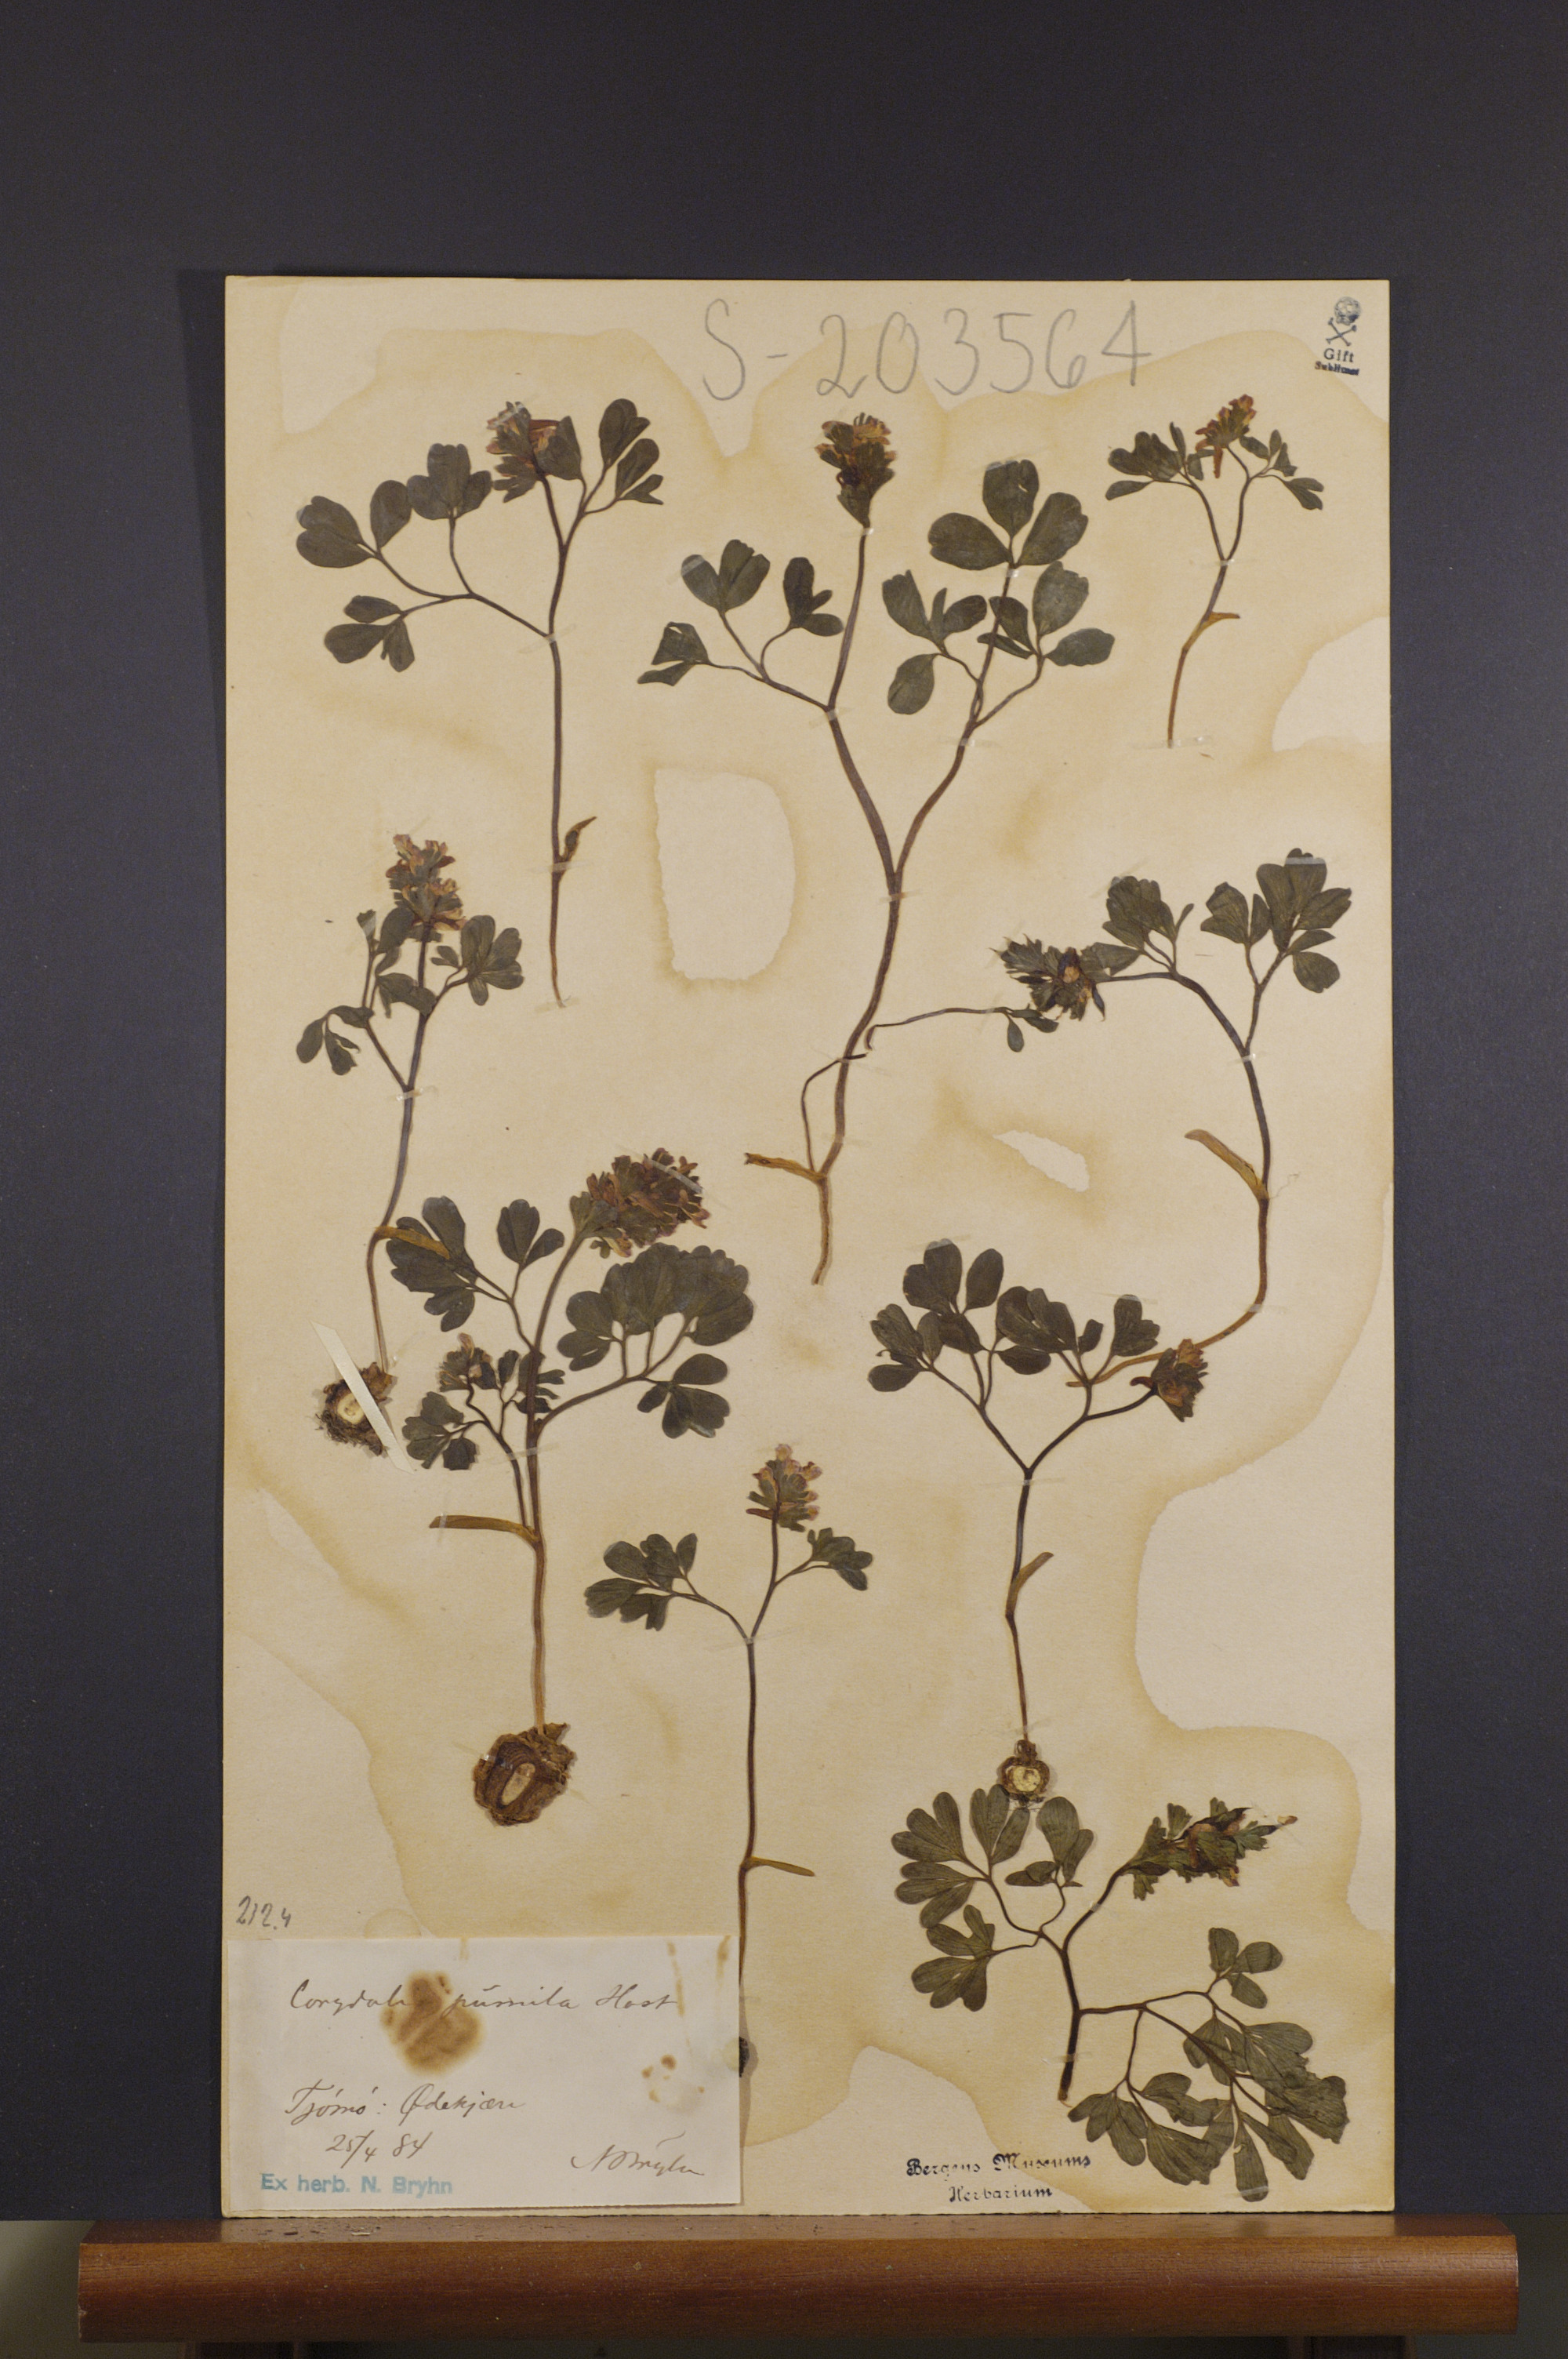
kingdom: Plantae
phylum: Tracheophyta
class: Magnoliopsida
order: Ranunculales
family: Papaveraceae
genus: Corydalis
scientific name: Corydalis pumila
